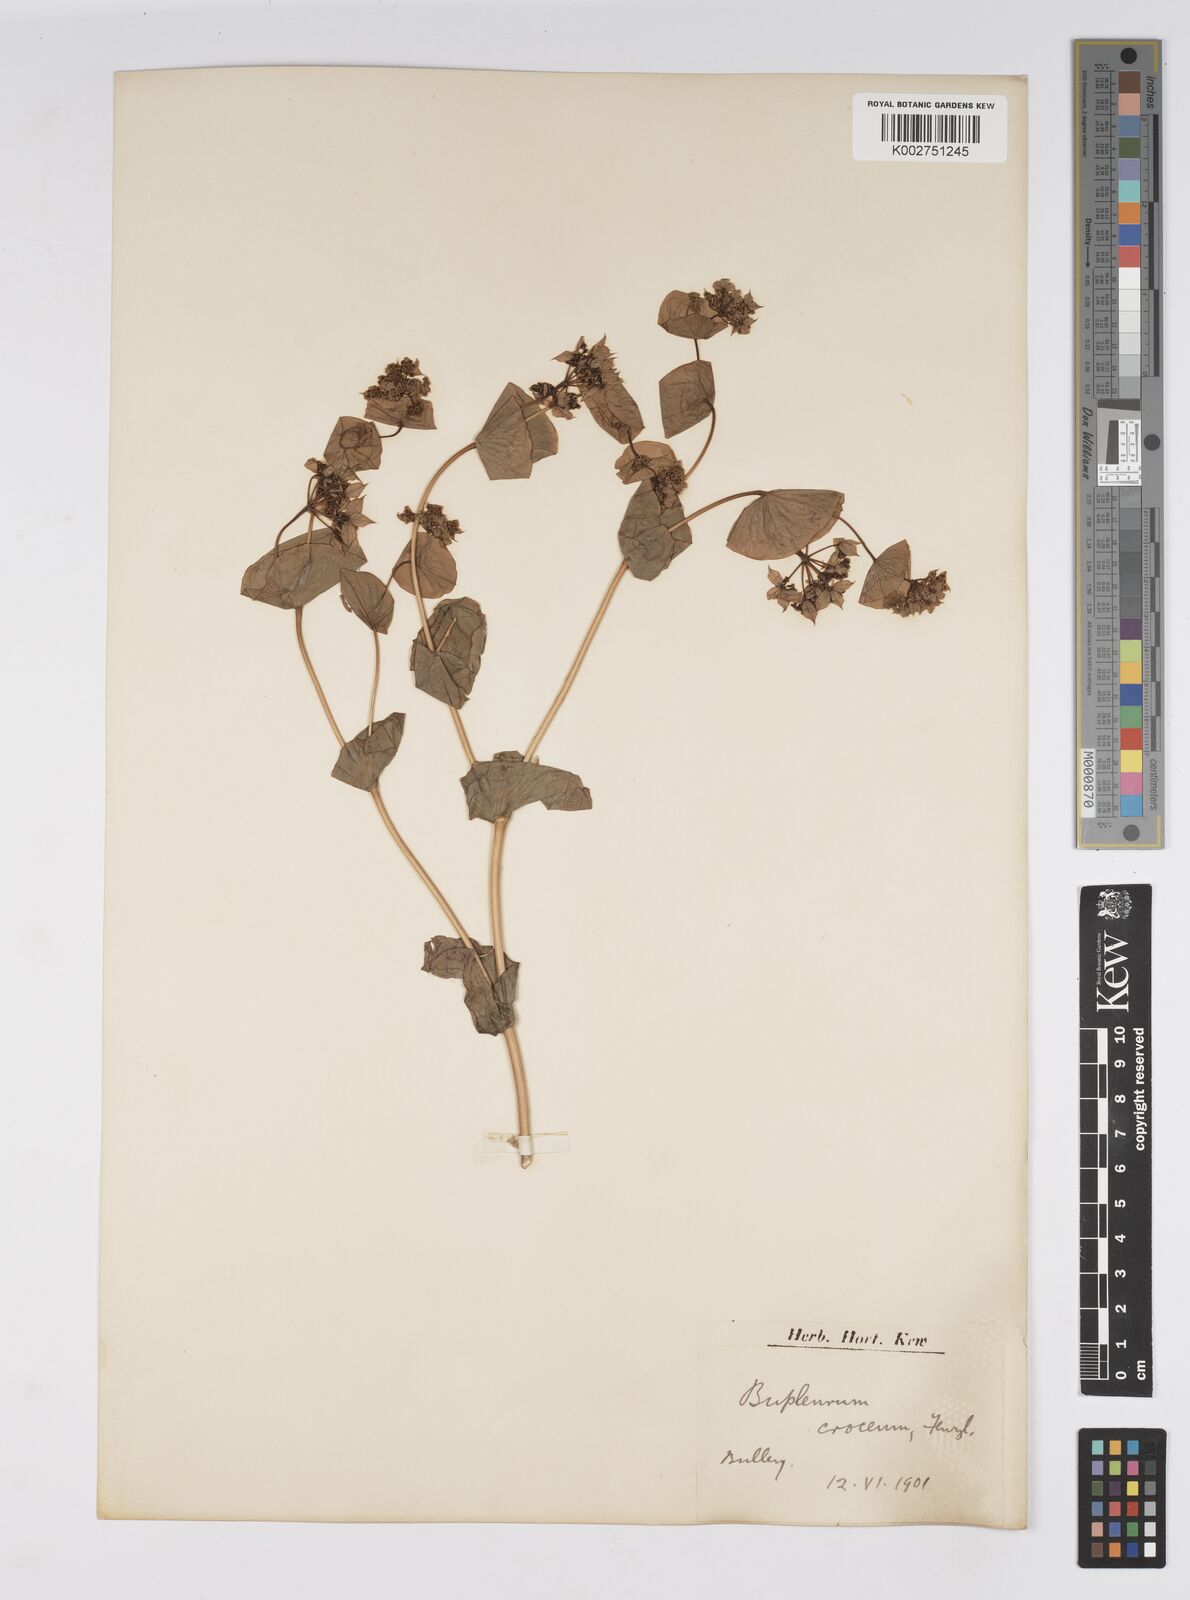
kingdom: Plantae
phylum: Tracheophyta
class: Magnoliopsida
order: Apiales
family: Apiaceae
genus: Bupleurum
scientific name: Bupleurum croceum
